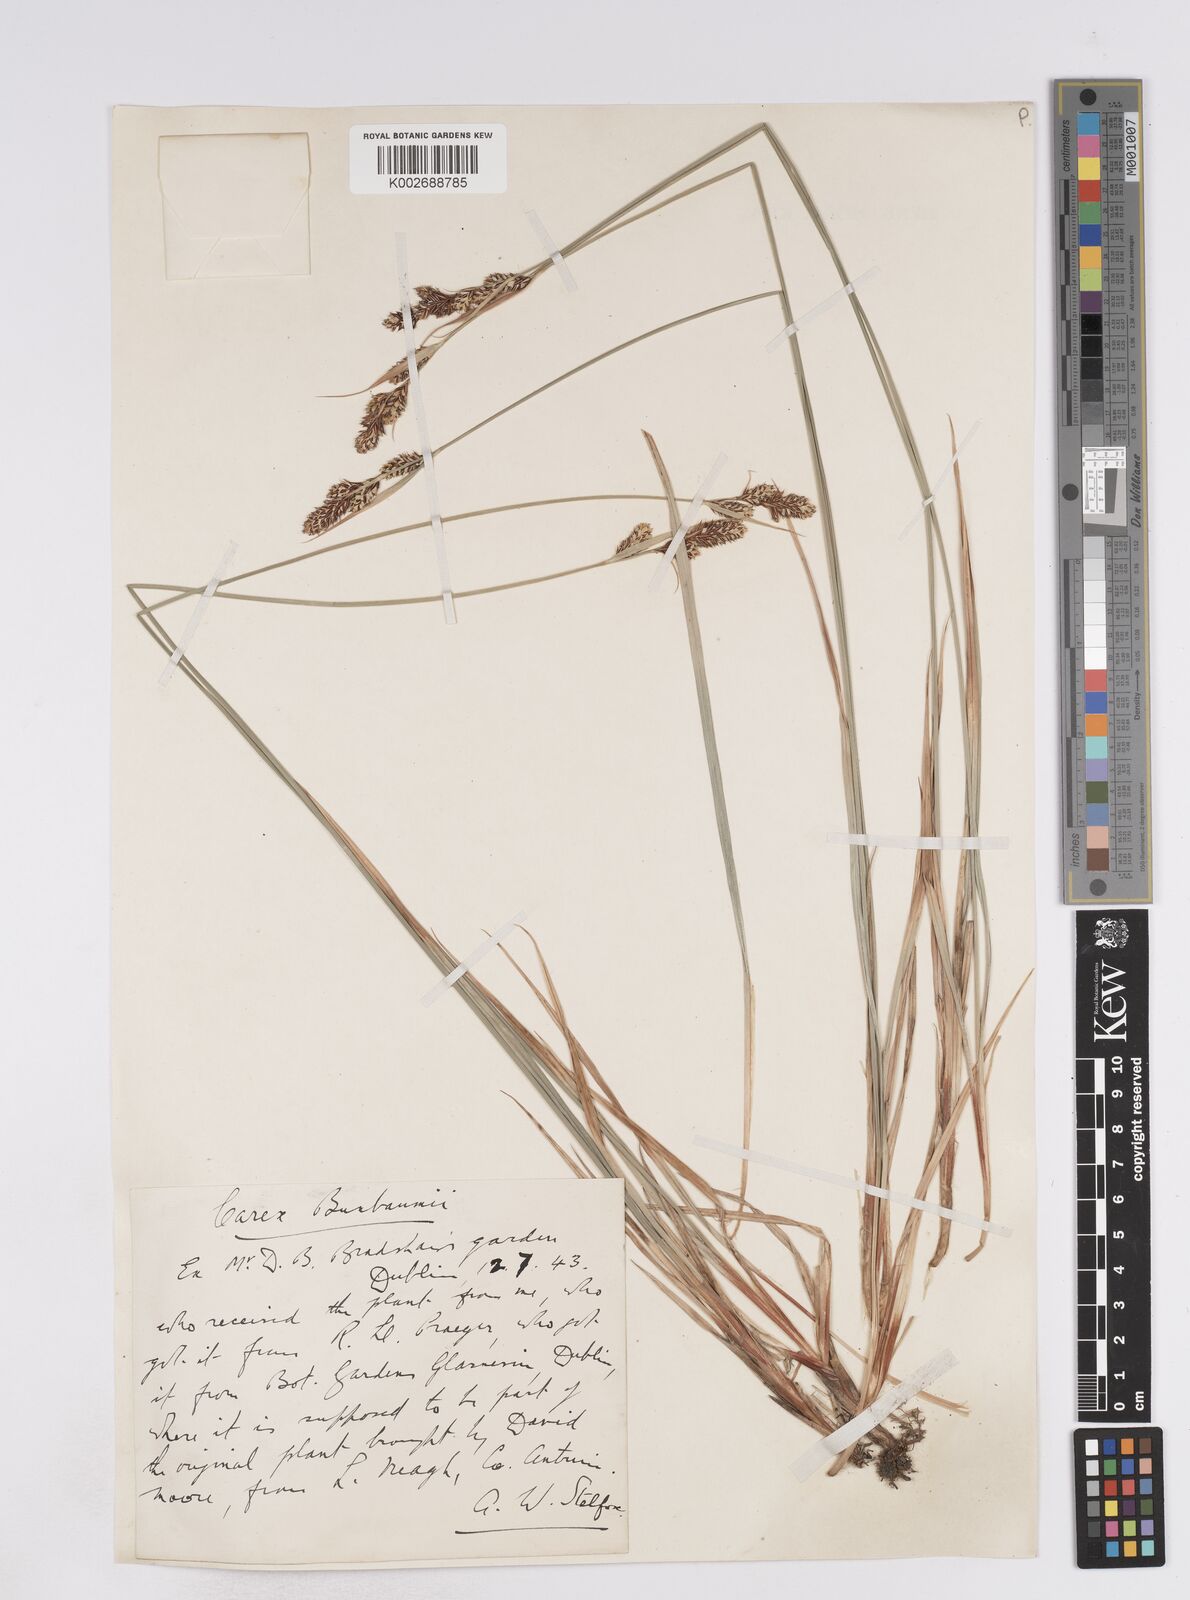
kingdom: Plantae
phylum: Tracheophyta
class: Liliopsida
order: Poales
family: Cyperaceae
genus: Carex
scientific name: Carex buxbaumii
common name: Club sedge
